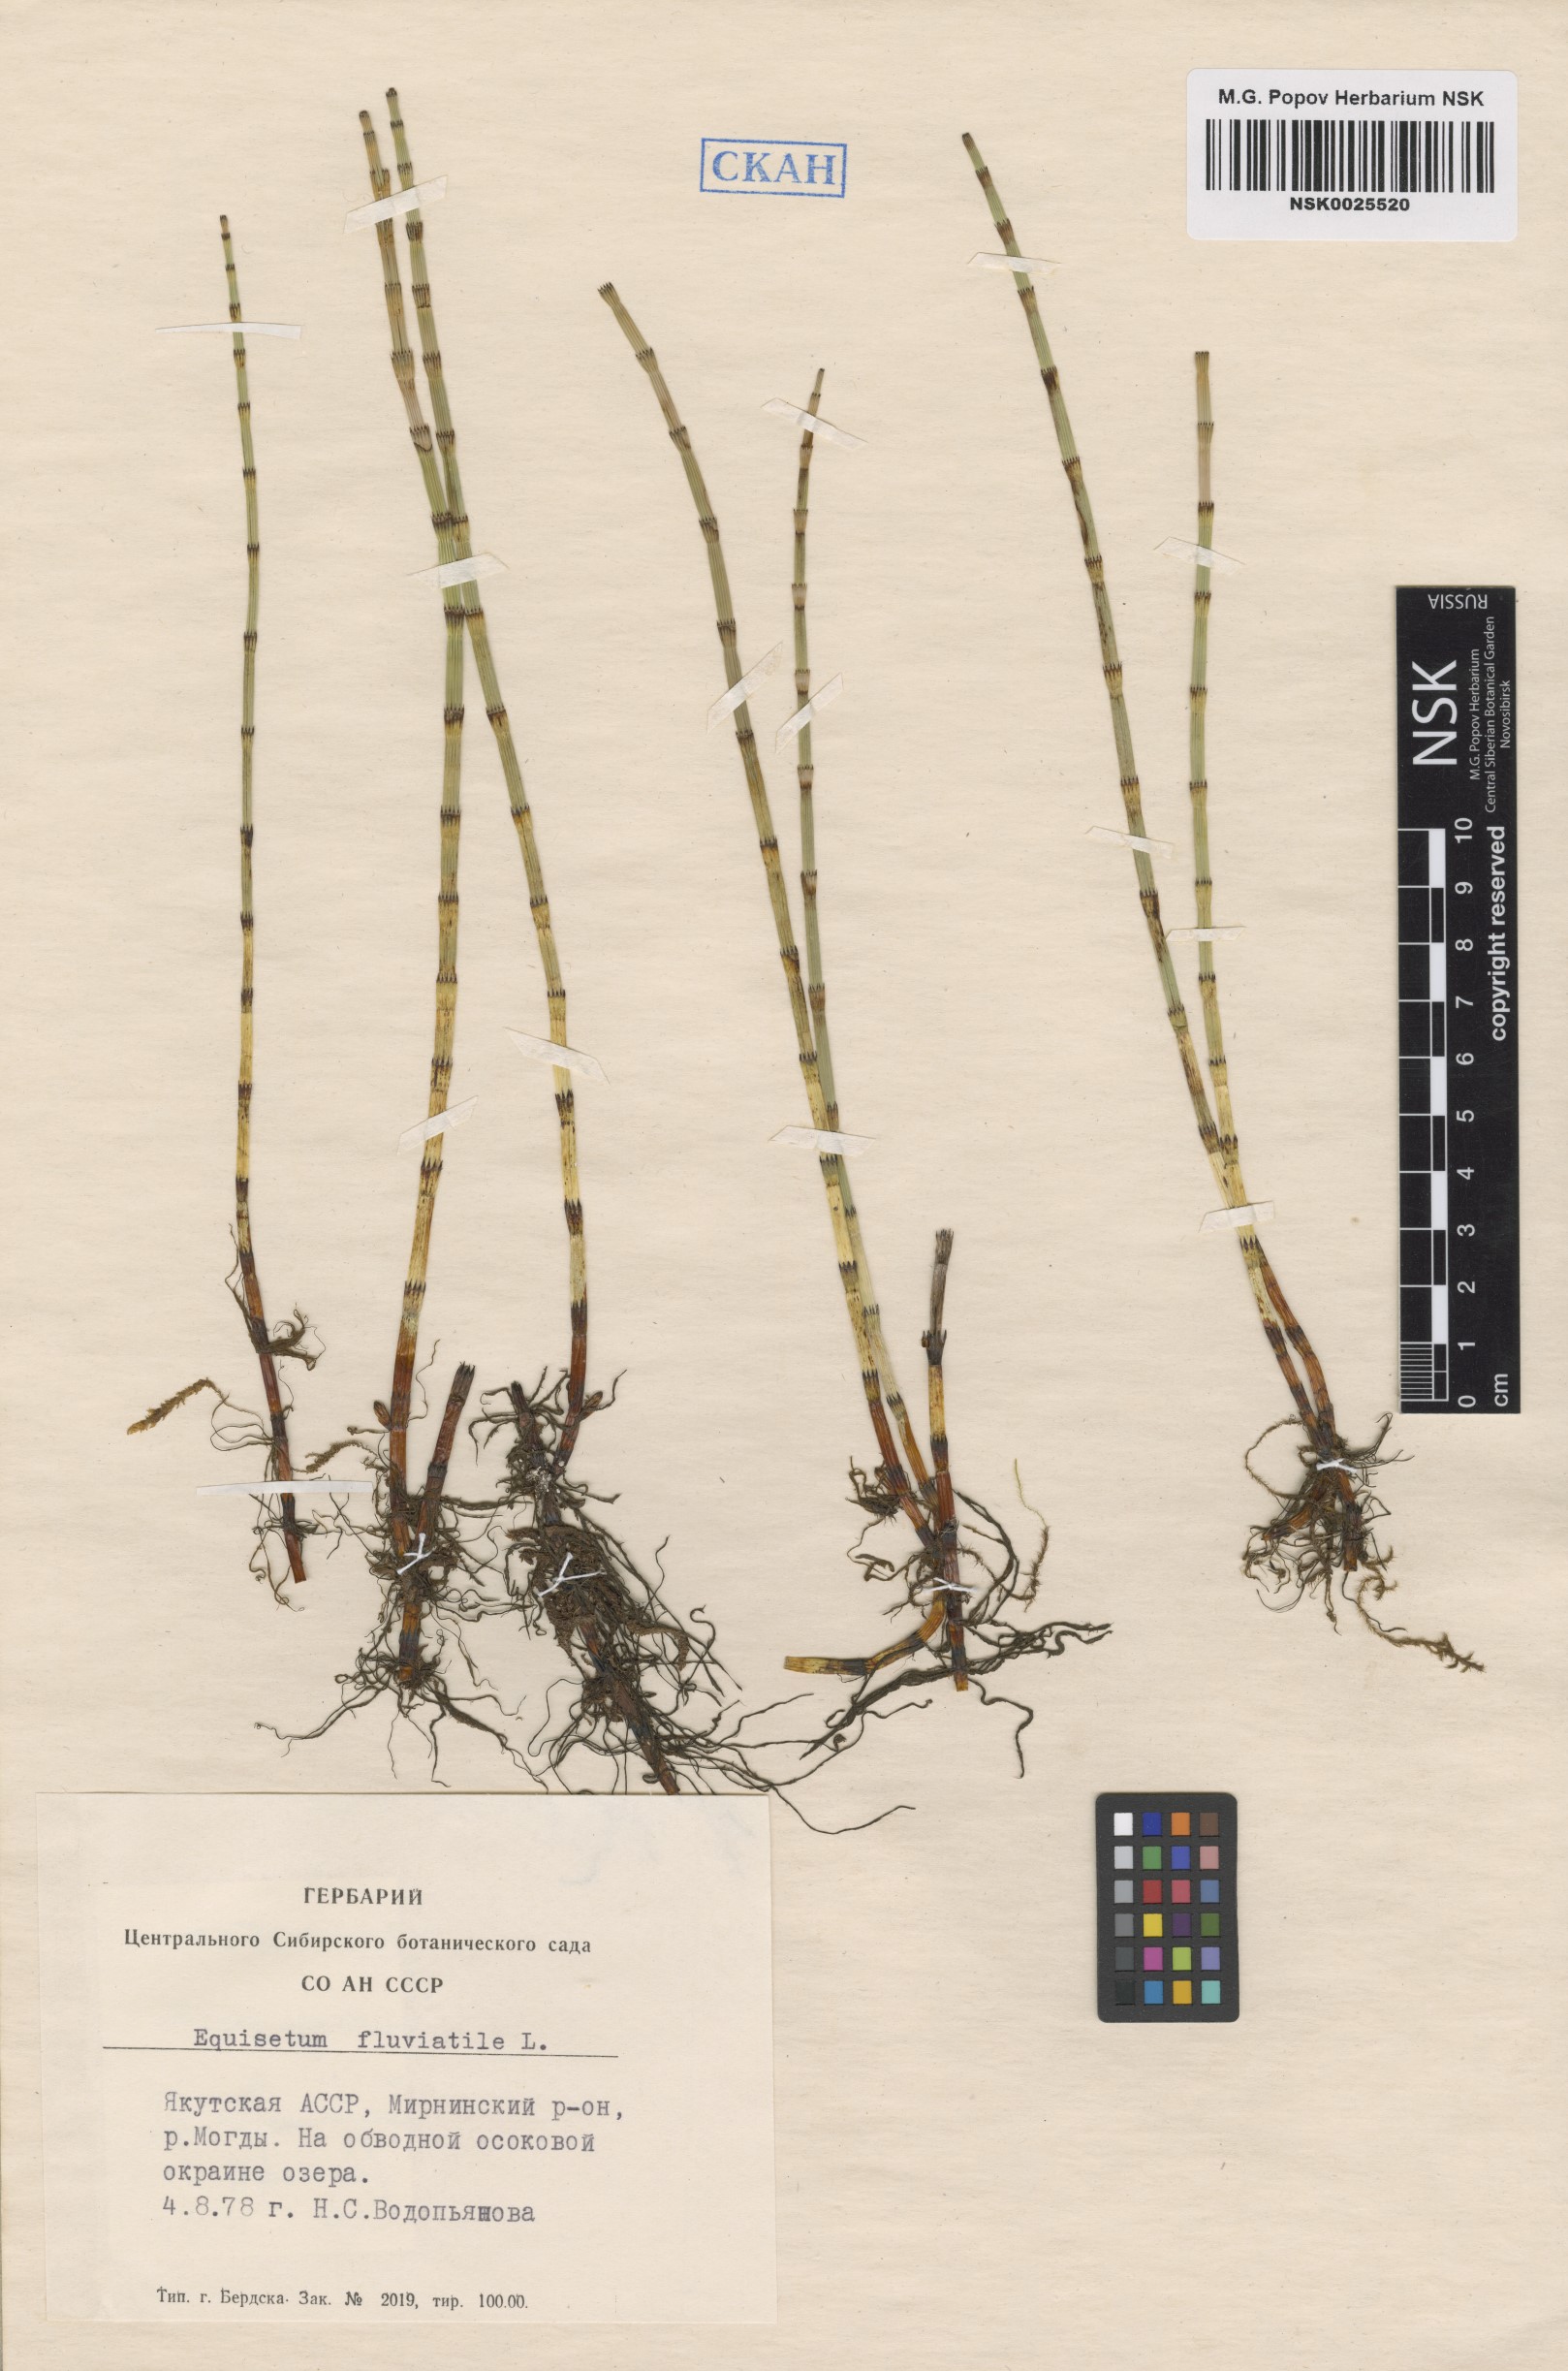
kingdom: Plantae
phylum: Tracheophyta
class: Polypodiopsida
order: Equisetales
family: Equisetaceae
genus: Equisetum
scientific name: Equisetum fluviatile
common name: Water horsetail
